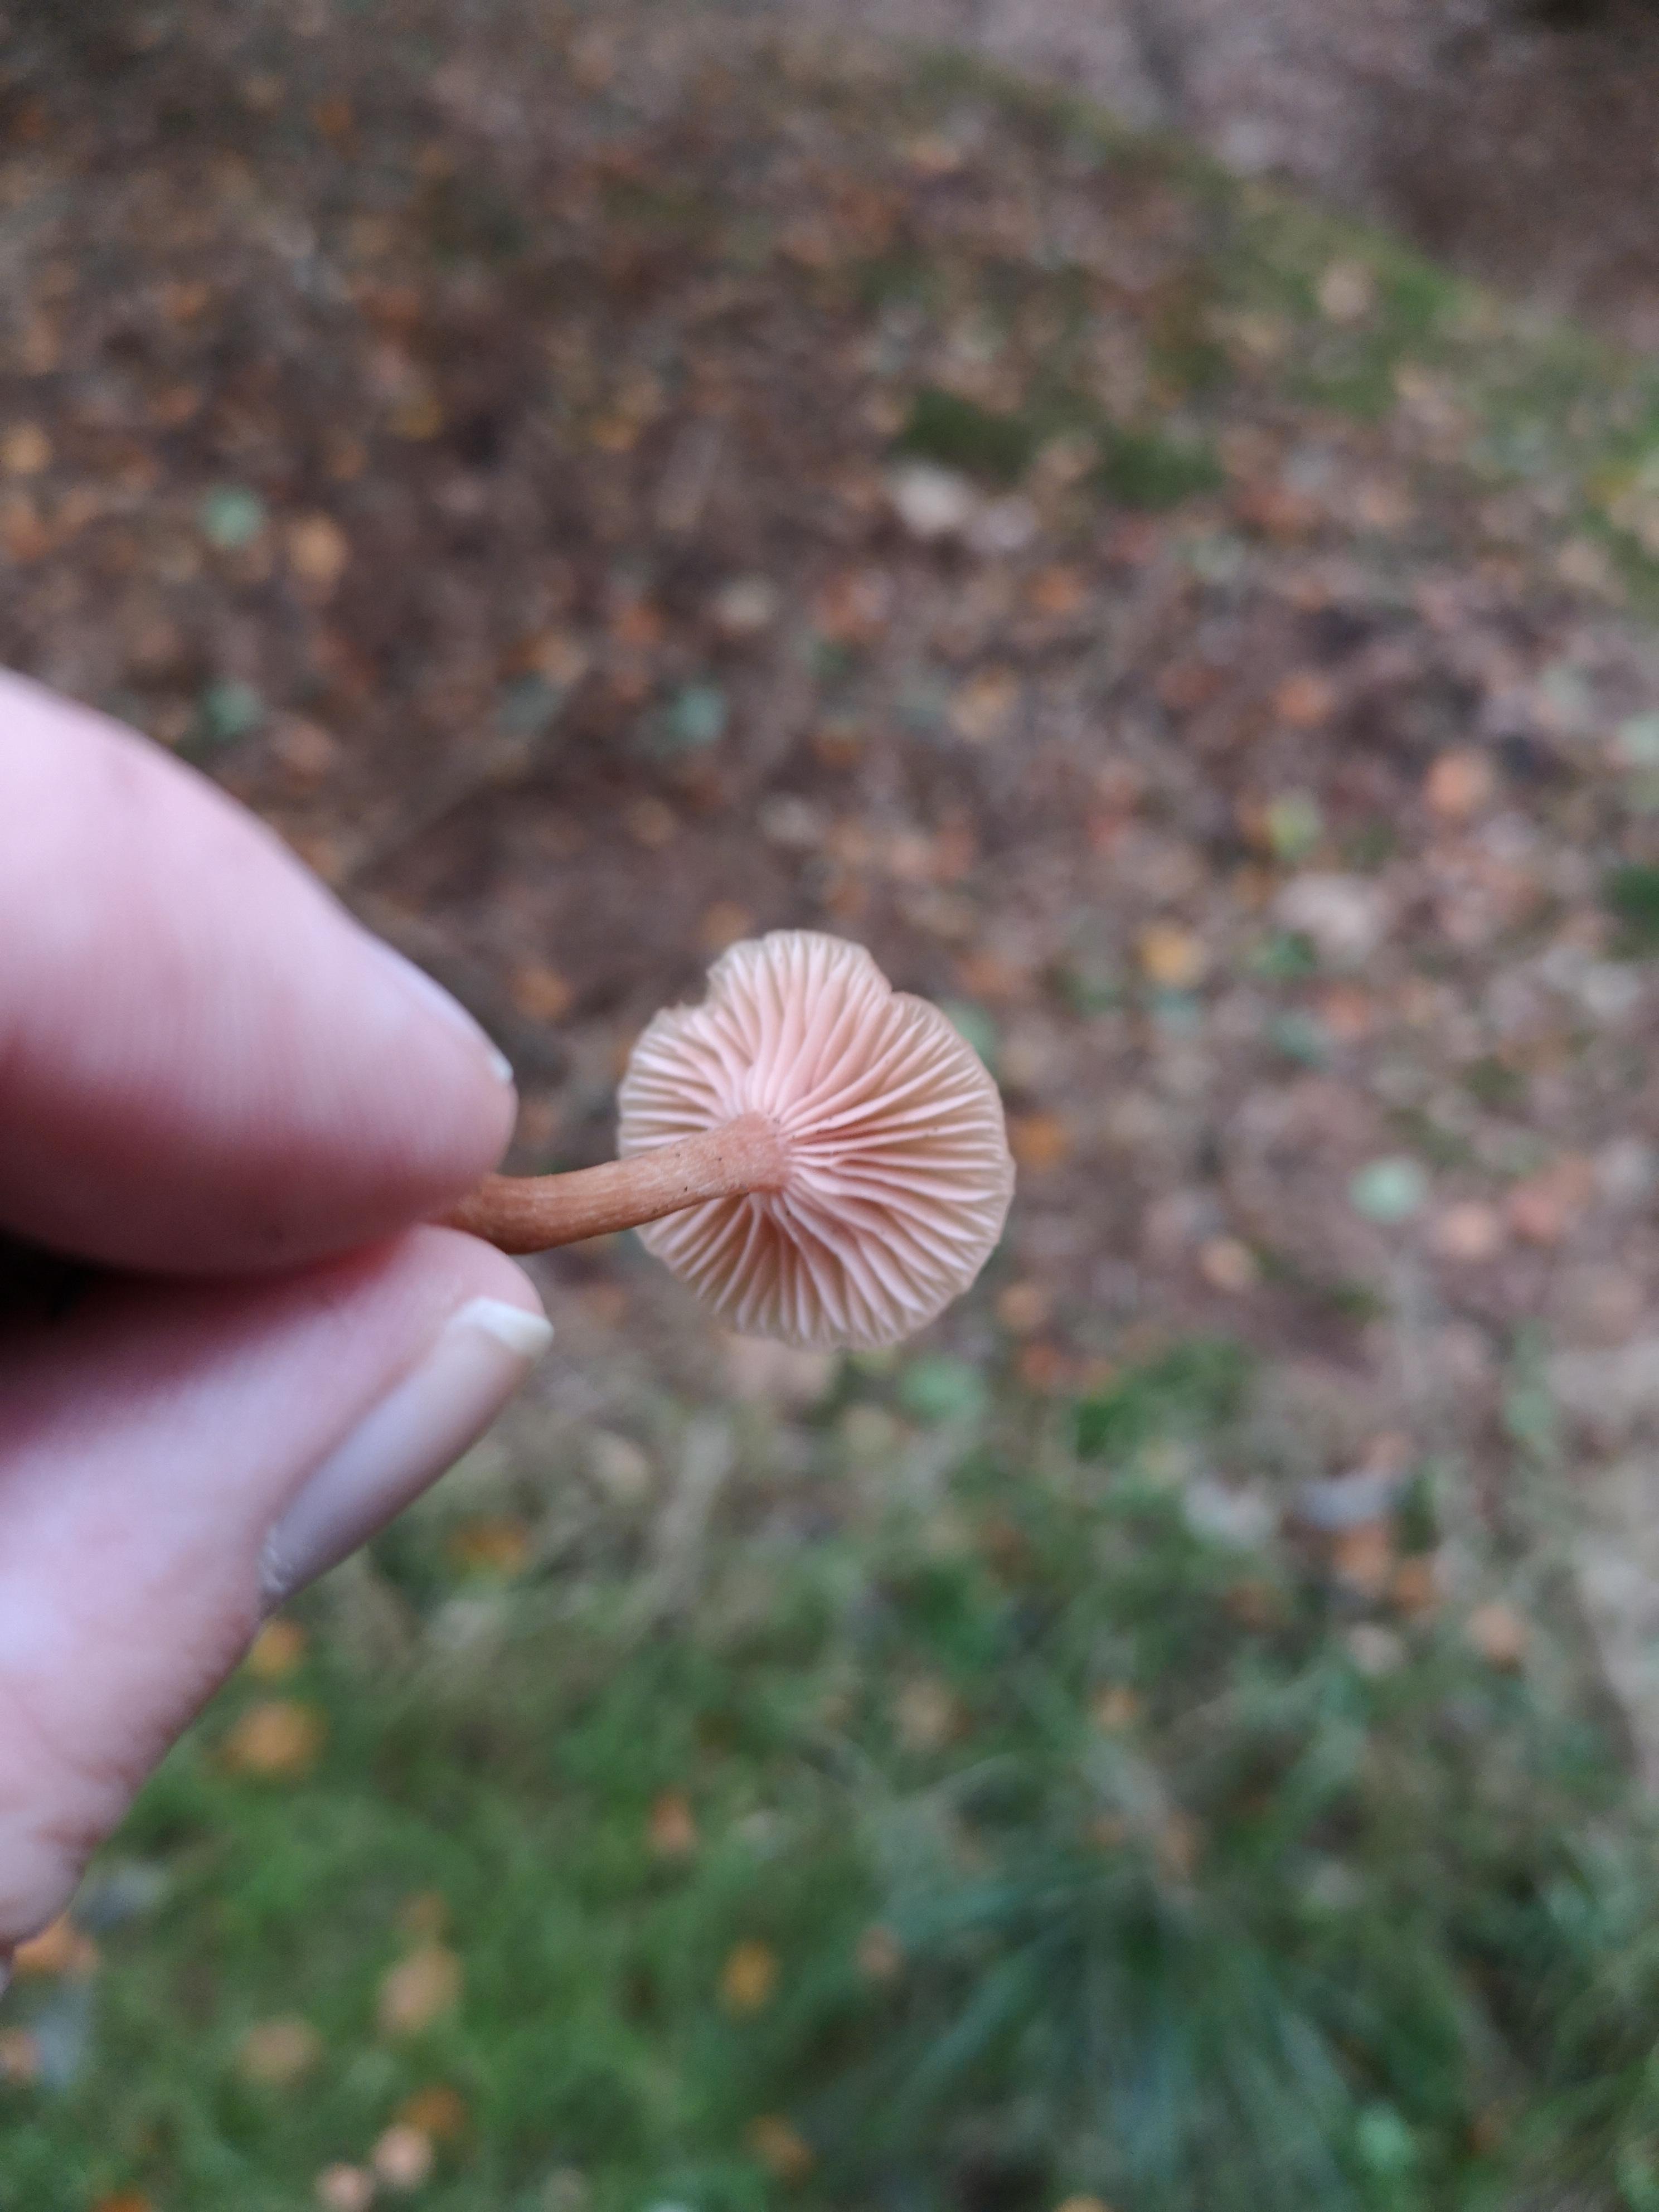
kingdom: Fungi
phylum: Basidiomycota
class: Agaricomycetes
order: Agaricales
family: Hydnangiaceae
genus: Laccaria
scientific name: Laccaria laccata
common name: rød ametysthat
